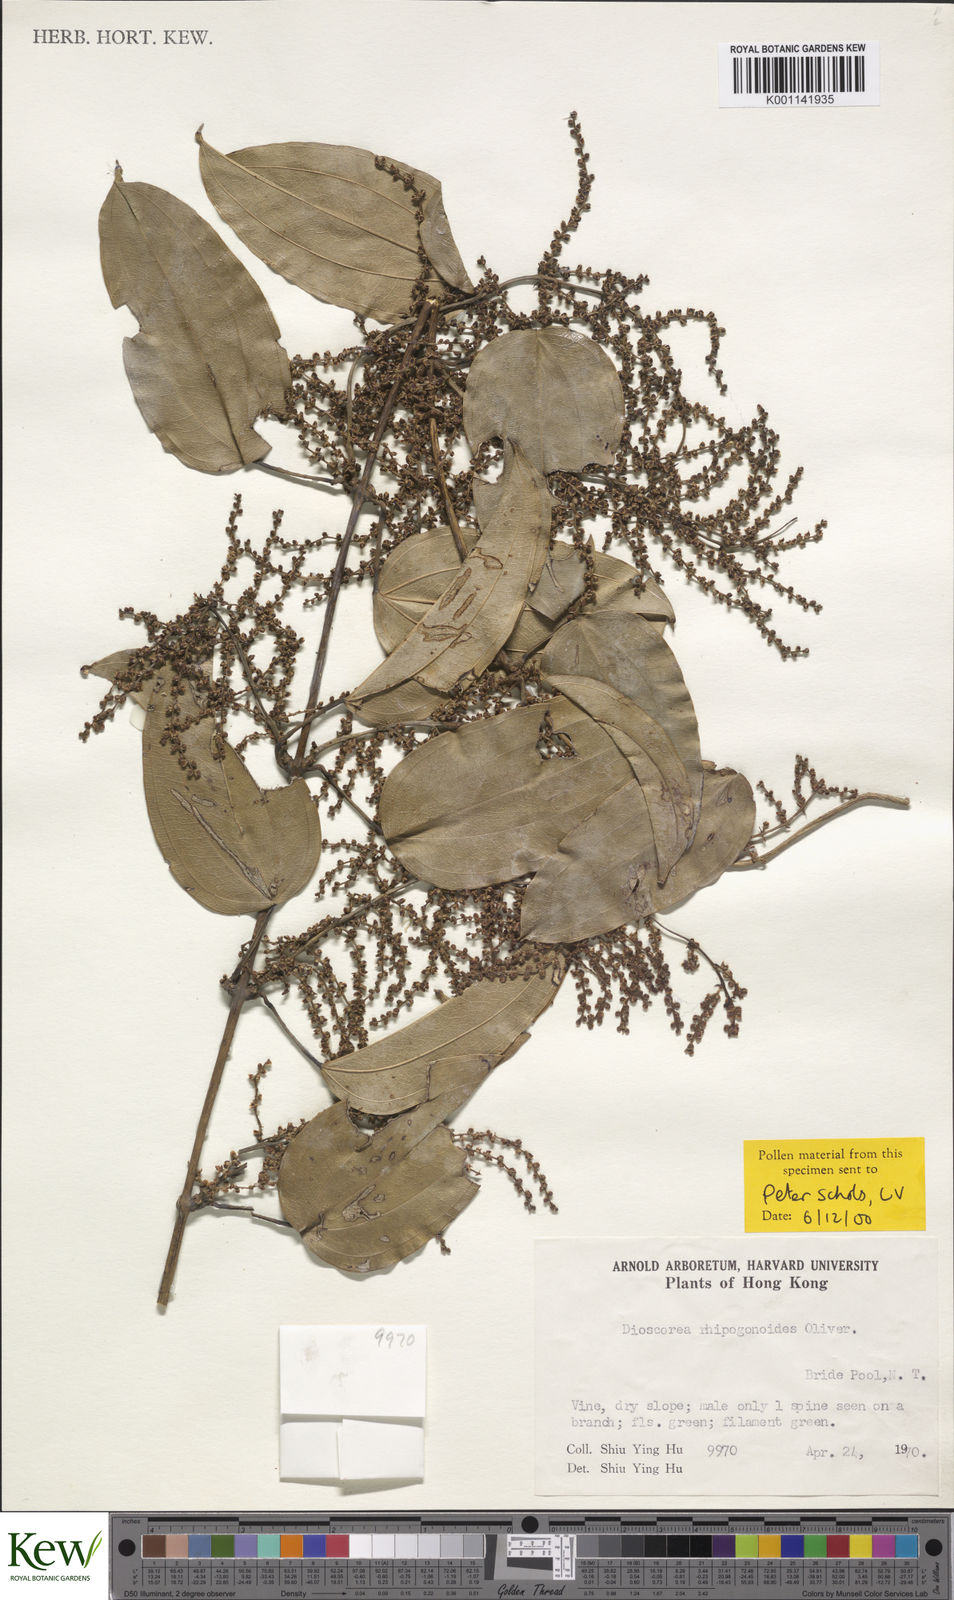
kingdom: Plantae
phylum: Tracheophyta
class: Liliopsida
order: Dioscoreales
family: Dioscoreaceae
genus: Dioscorea
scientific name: Dioscorea cirrhosa
